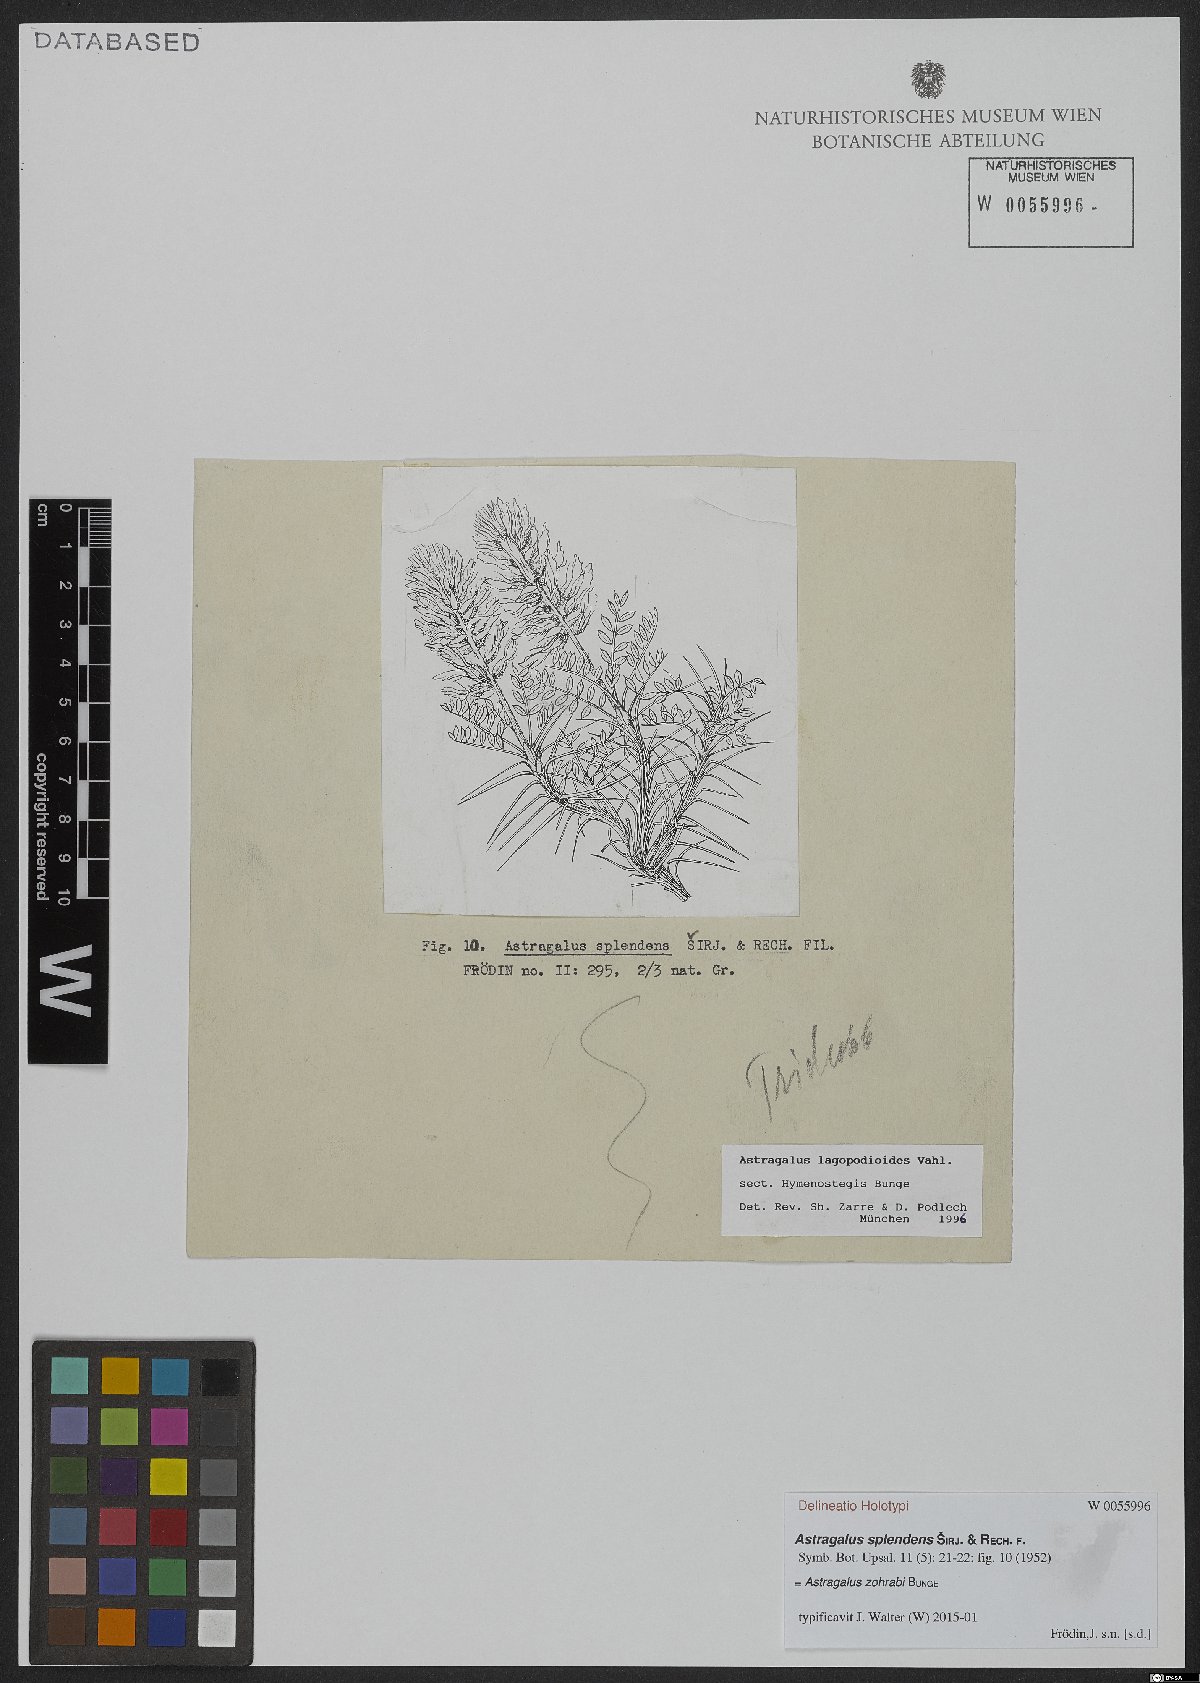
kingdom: Plantae
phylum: Tracheophyta
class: Magnoliopsida
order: Fabales
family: Fabaceae
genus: Astragalus
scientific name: Astragalus lagopodioides
